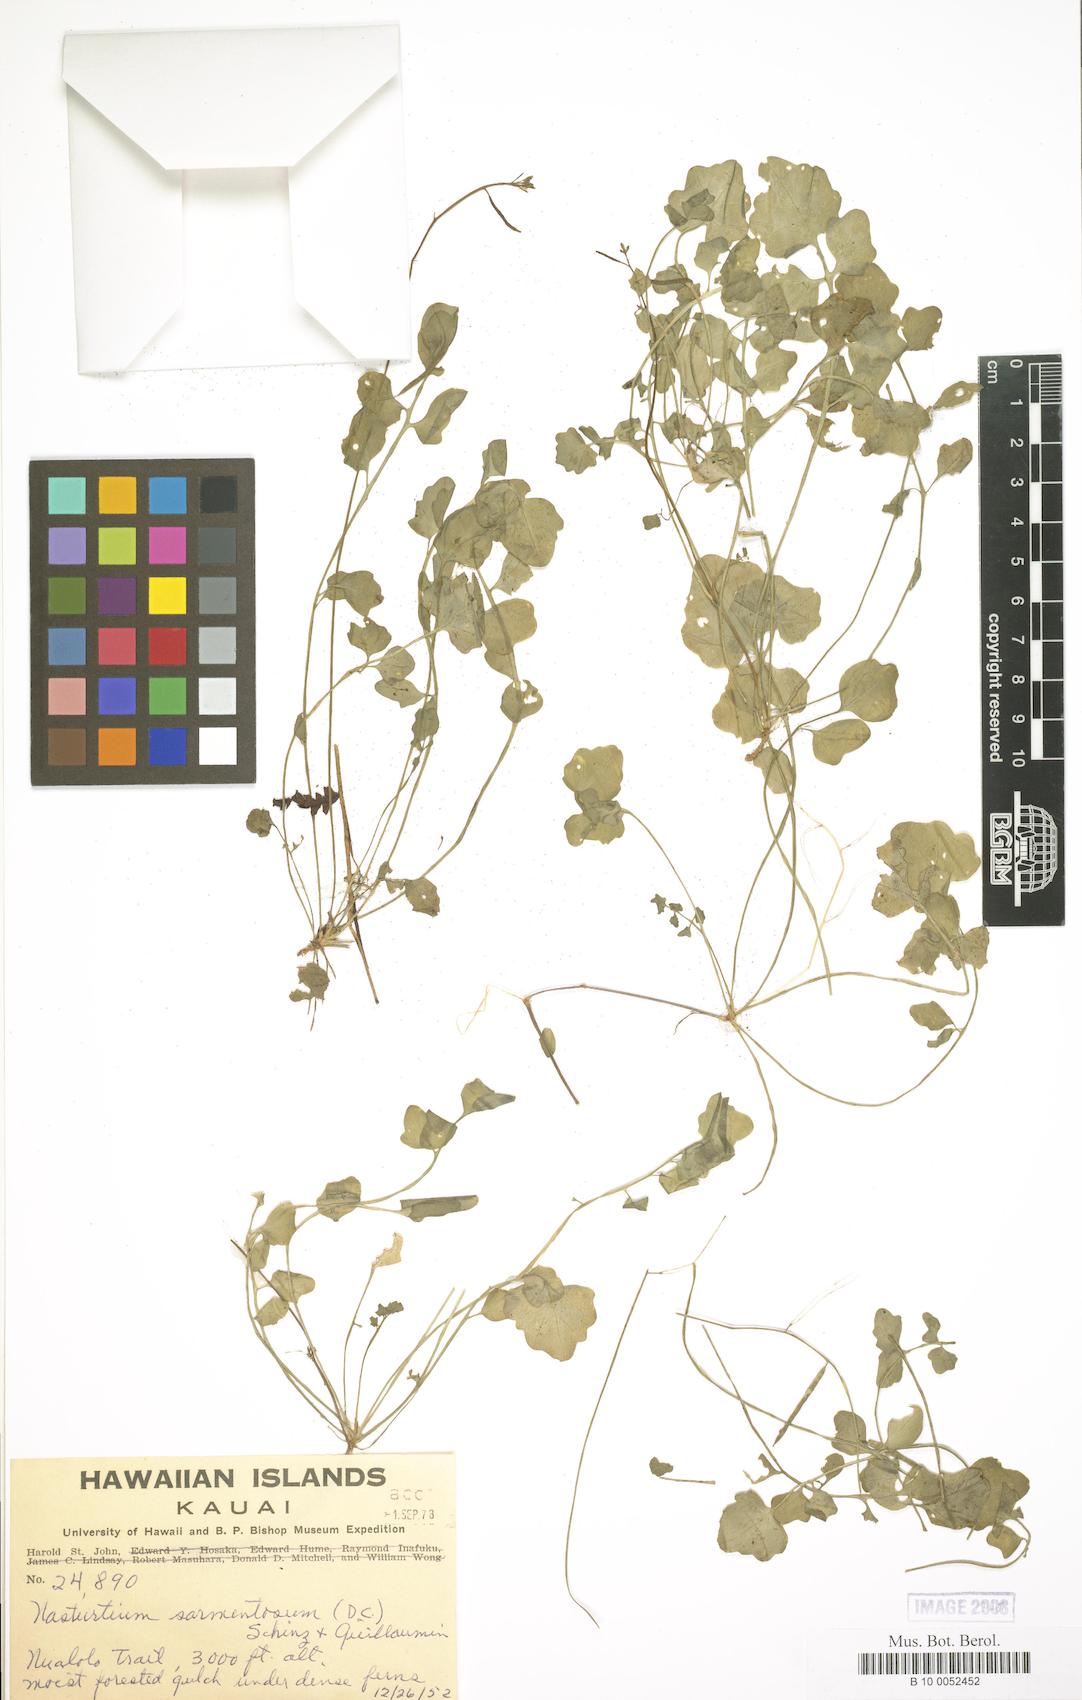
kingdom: Plantae
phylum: Tracheophyta
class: Magnoliopsida
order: Brassicales
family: Brassicaceae
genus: Rorippa
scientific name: Rorippa sarmentosa
